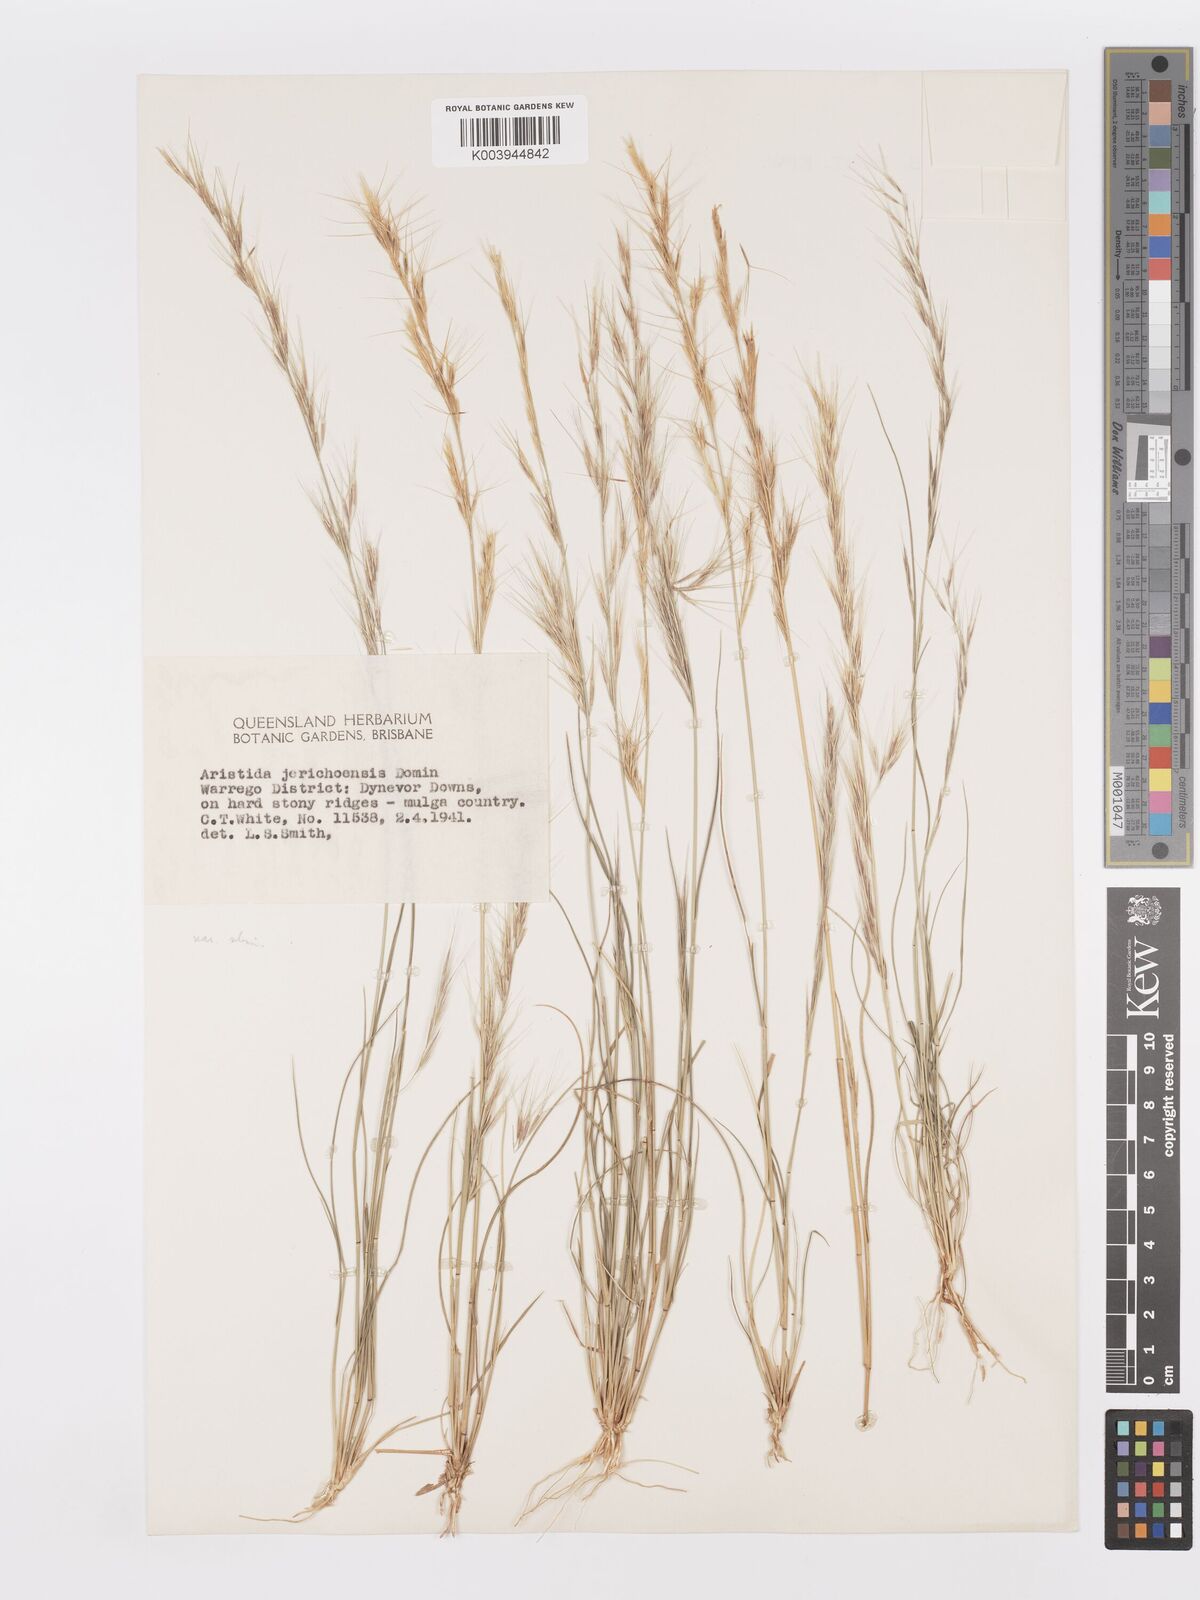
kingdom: Plantae
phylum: Tracheophyta
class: Liliopsida
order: Poales
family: Poaceae
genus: Aristida
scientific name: Aristida jerichoensis
